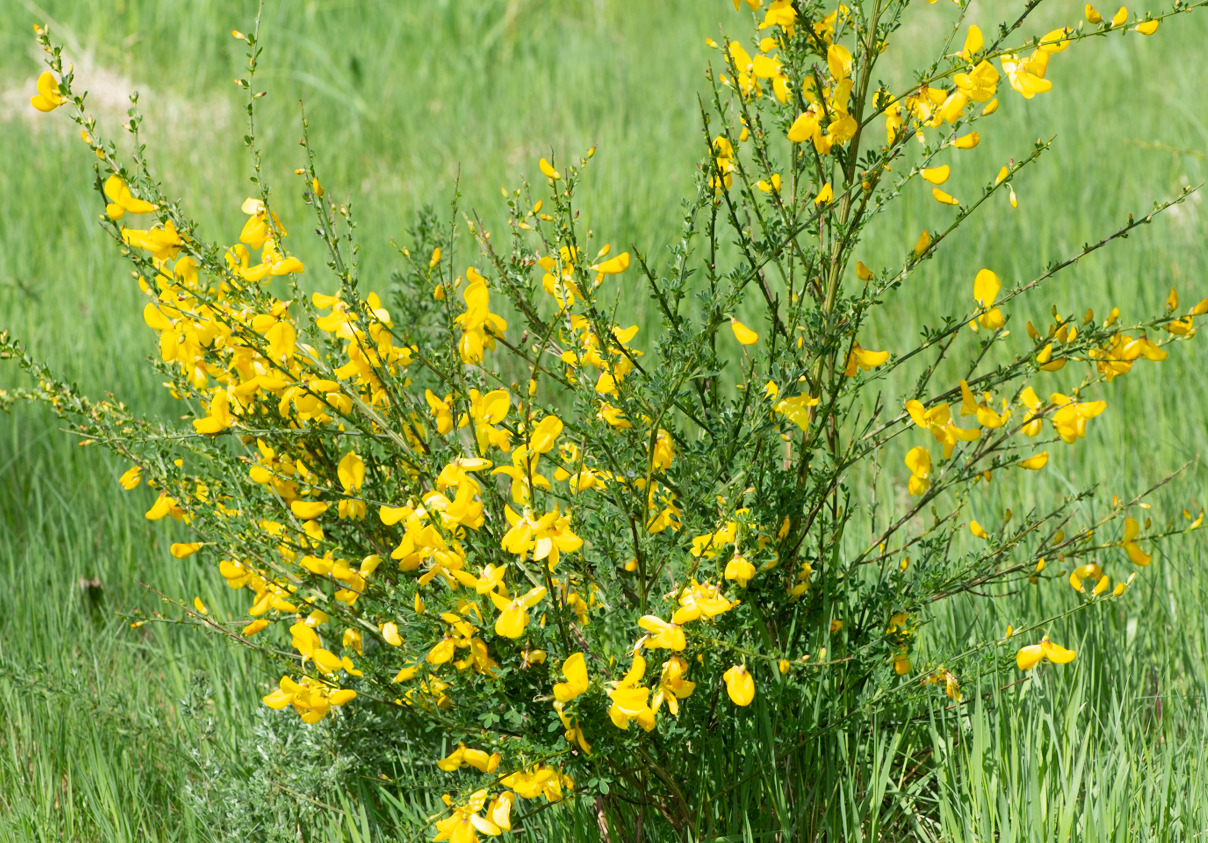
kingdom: Plantae
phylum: Tracheophyta
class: Magnoliopsida
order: Fabales
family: Fabaceae
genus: Cytisus
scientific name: Cytisus scoparius
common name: Almindelig gyvel
